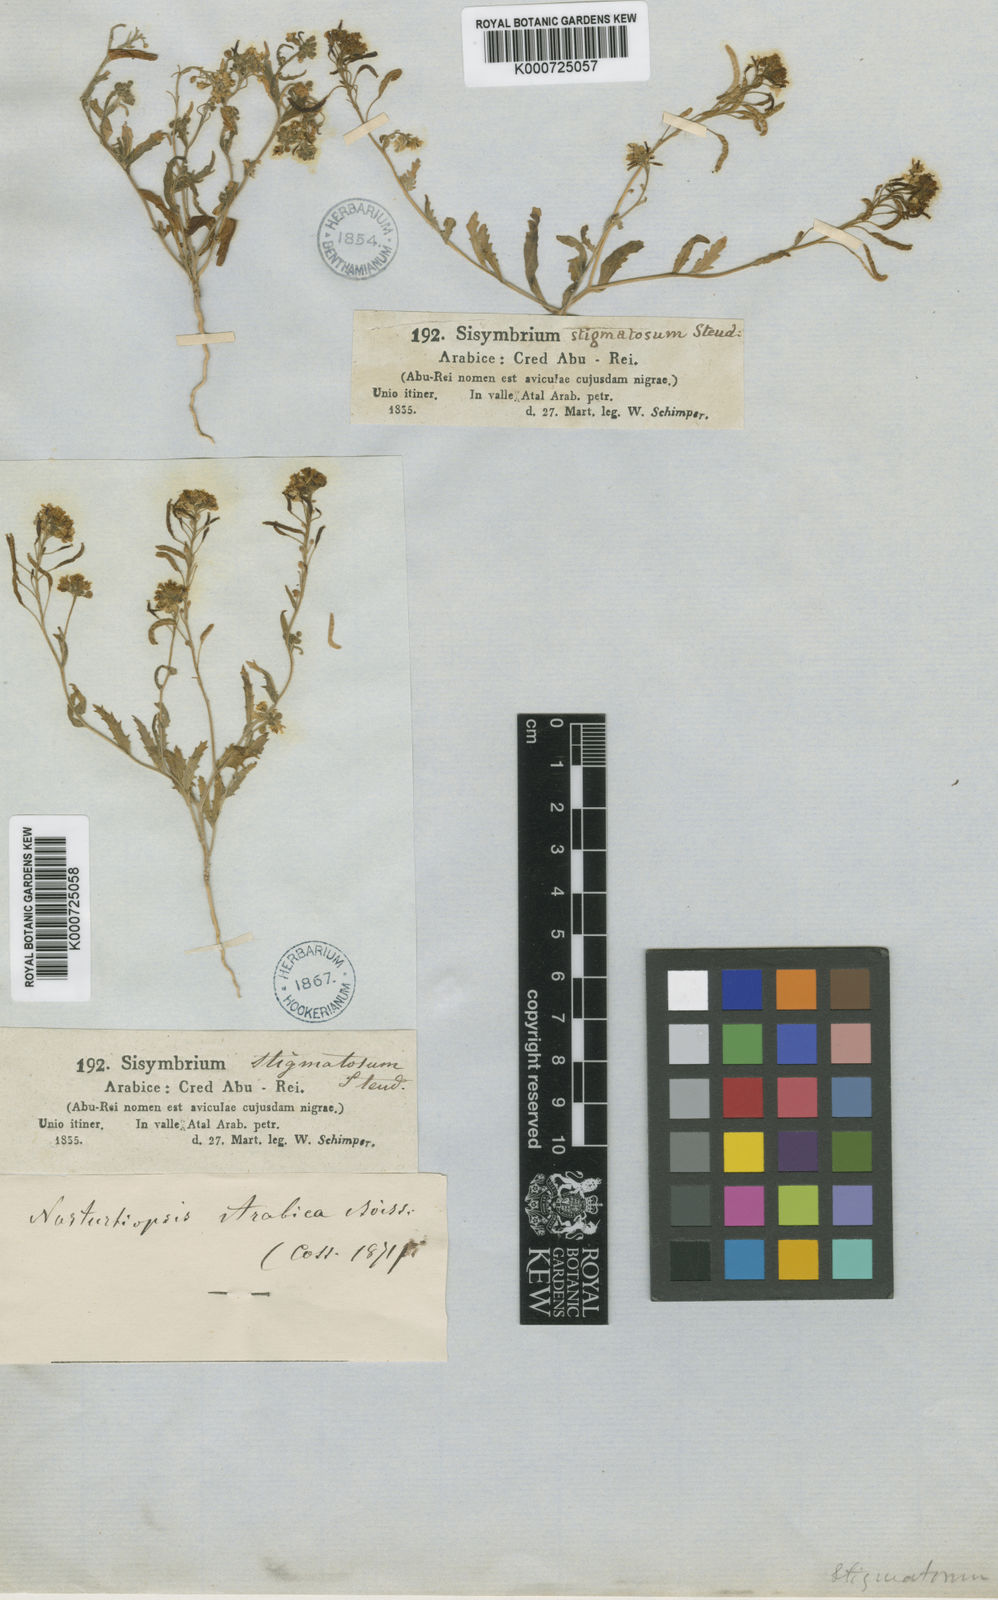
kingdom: Plantae
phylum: Tracheophyta
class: Magnoliopsida
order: Brassicales
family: Brassicaceae
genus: Nasturtiopsis
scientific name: Nasturtiopsis
